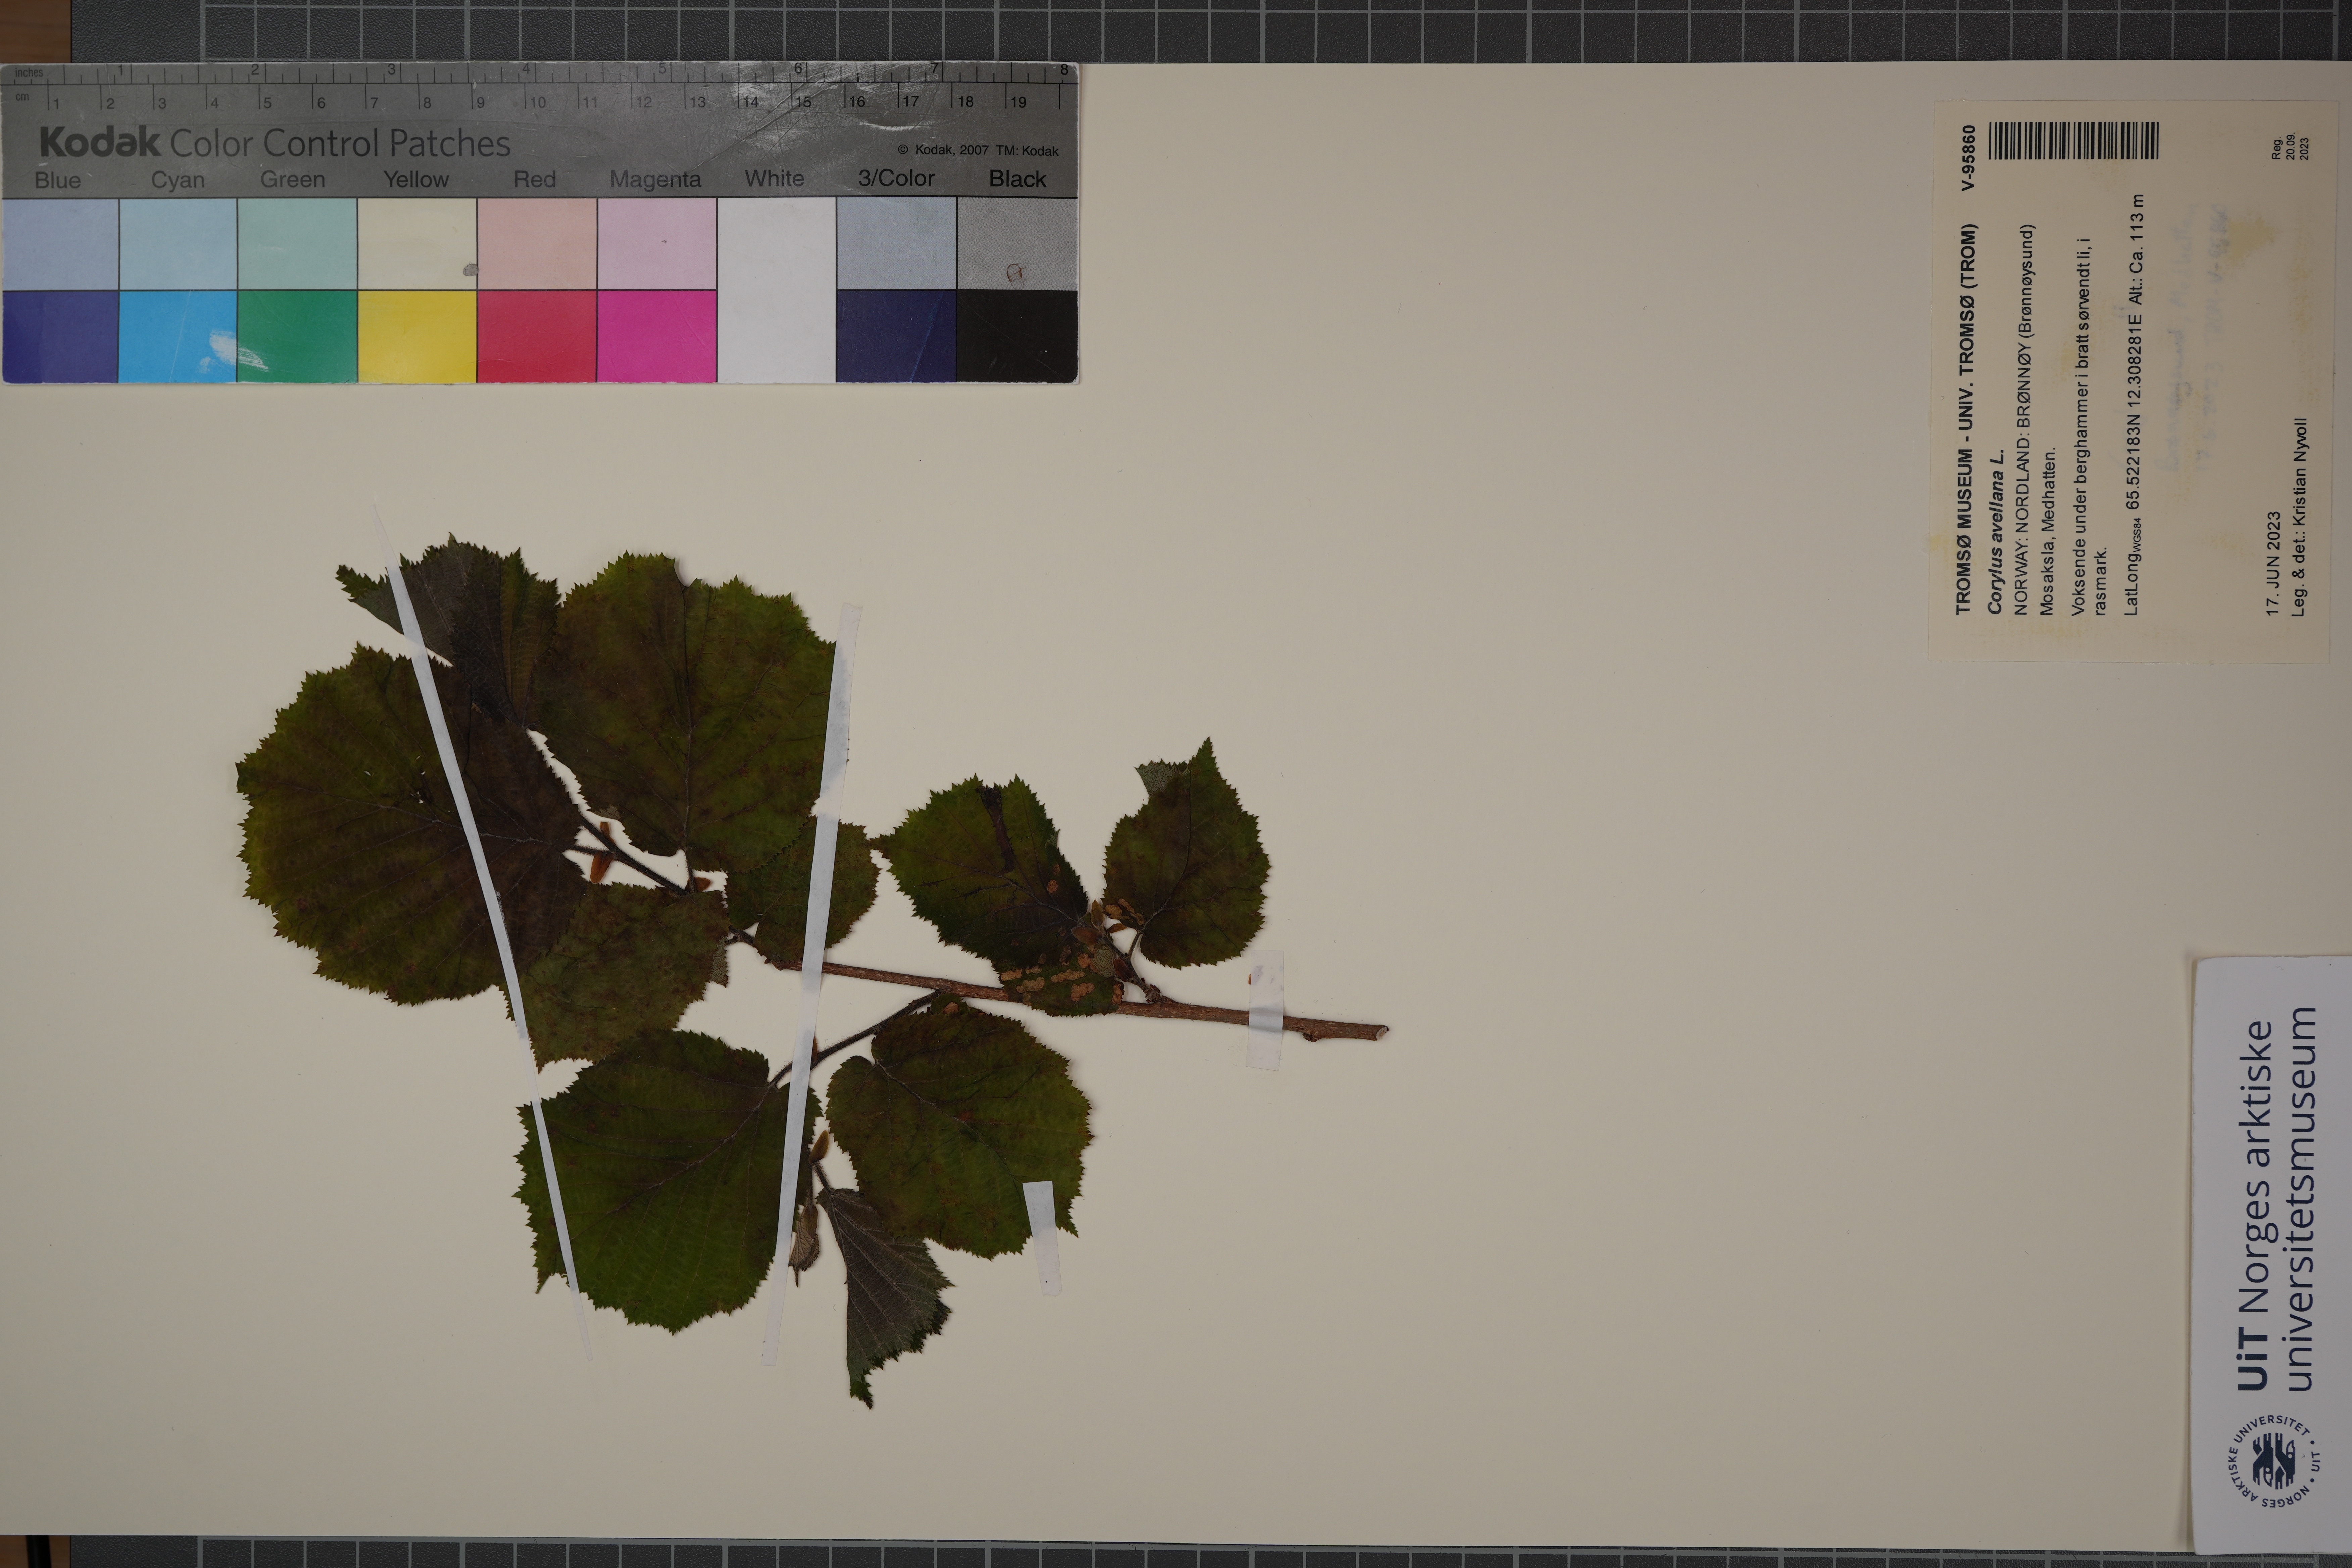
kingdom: Plantae
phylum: Tracheophyta
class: Magnoliopsida
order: Fagales
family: Betulaceae
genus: Corylus
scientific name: Corylus avellana
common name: European hazel
